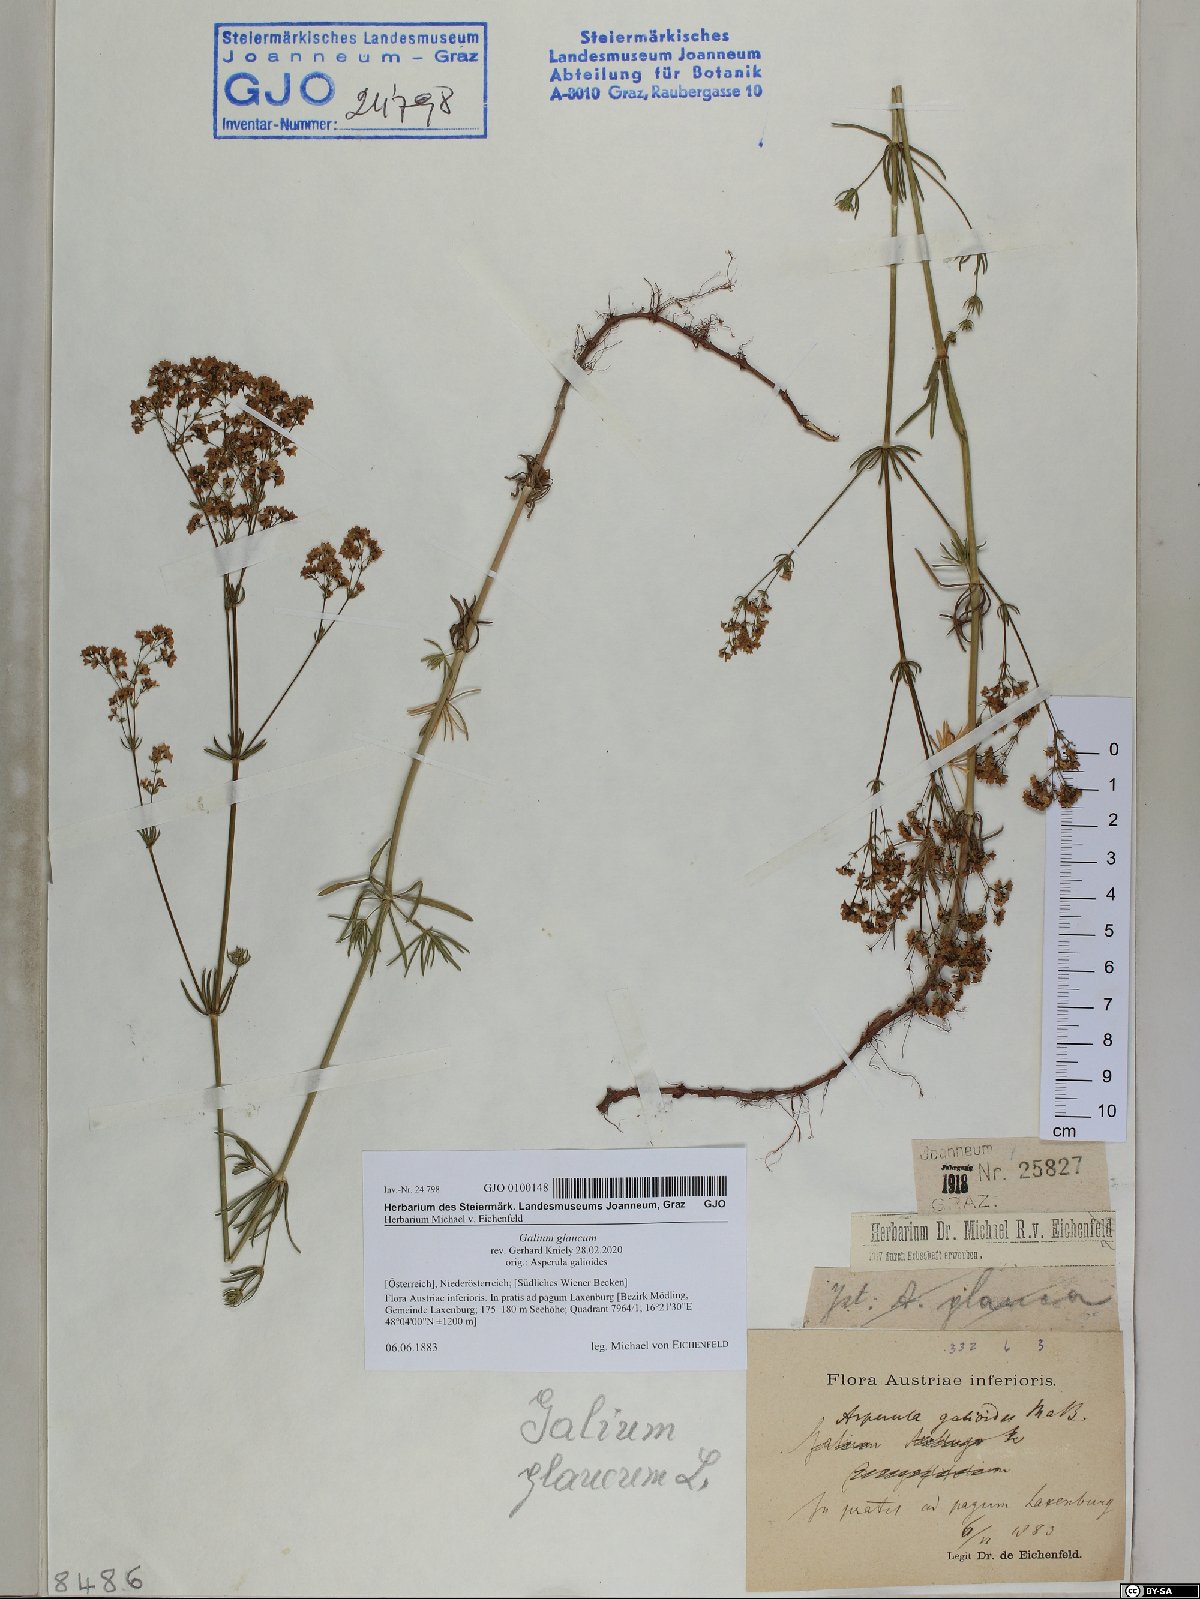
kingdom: Plantae
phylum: Tracheophyta
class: Magnoliopsida
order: Gentianales
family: Rubiaceae
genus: Galium
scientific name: Galium glaucum
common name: Waxy bedstraw
